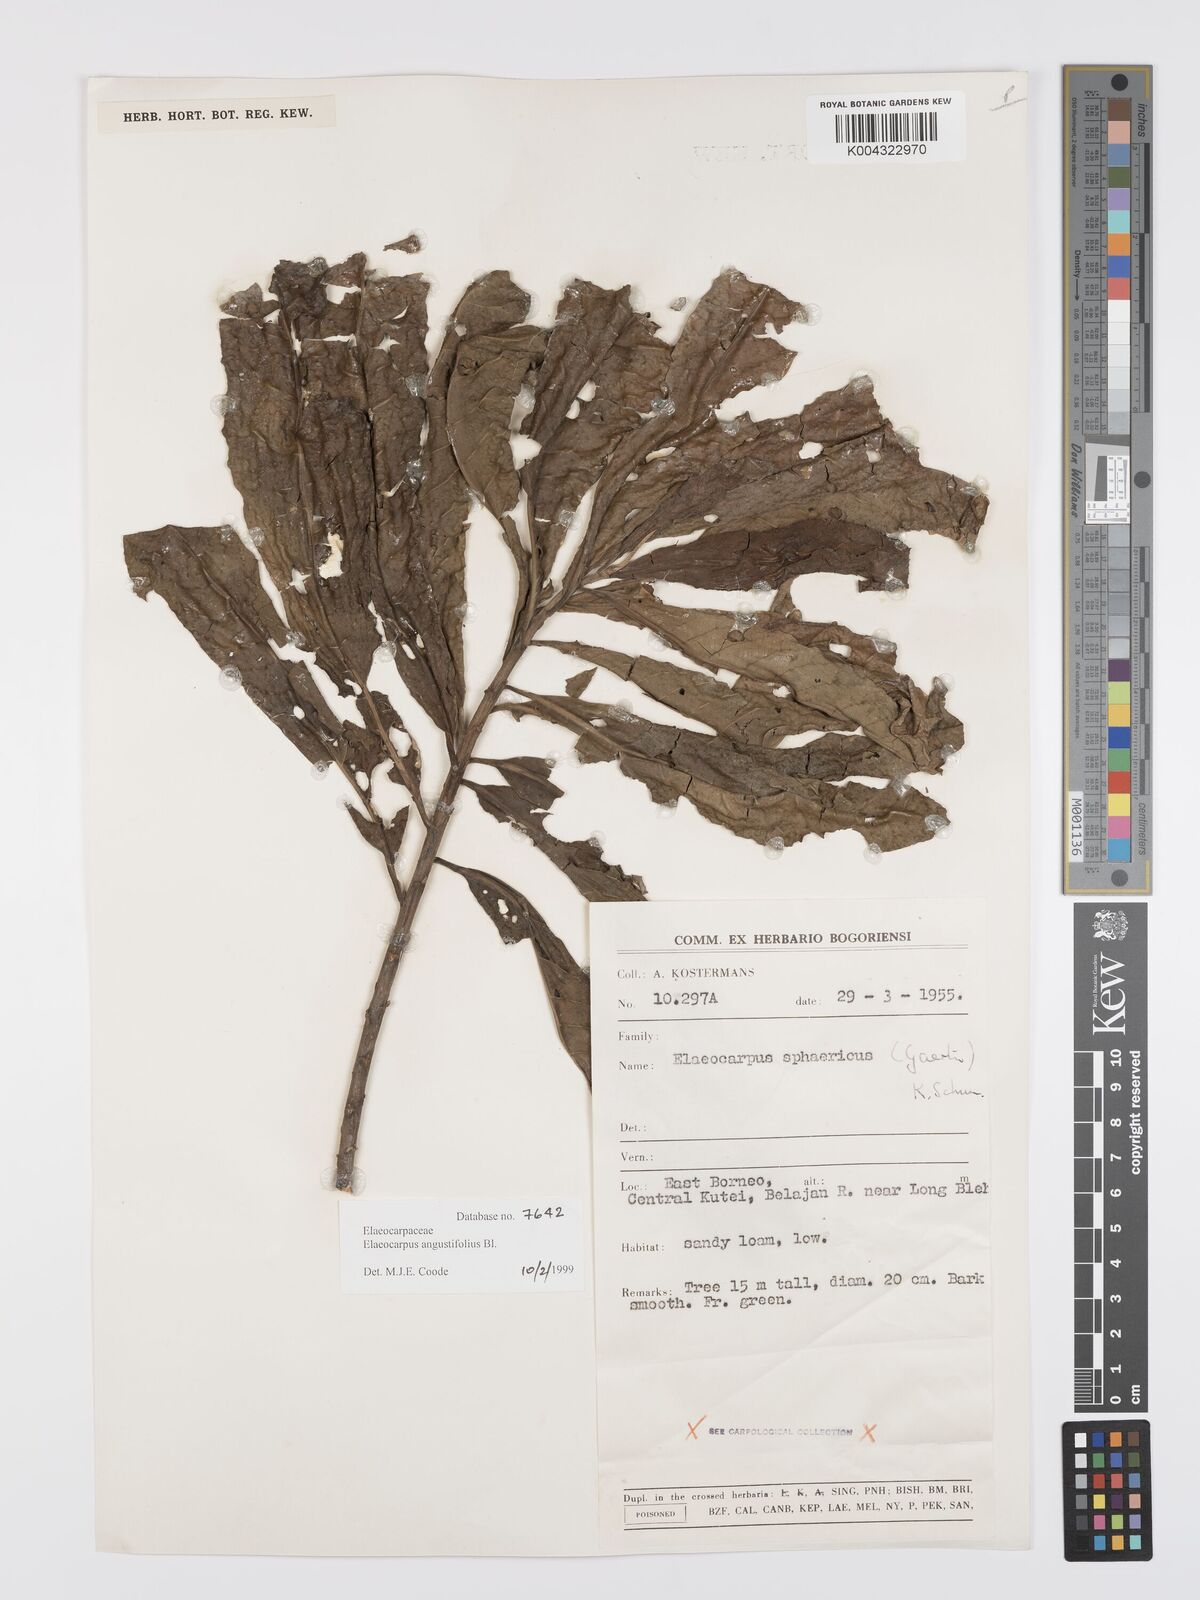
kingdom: Plantae
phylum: Tracheophyta
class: Magnoliopsida
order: Oxalidales
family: Elaeocarpaceae
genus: Elaeocarpus
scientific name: Elaeocarpus
